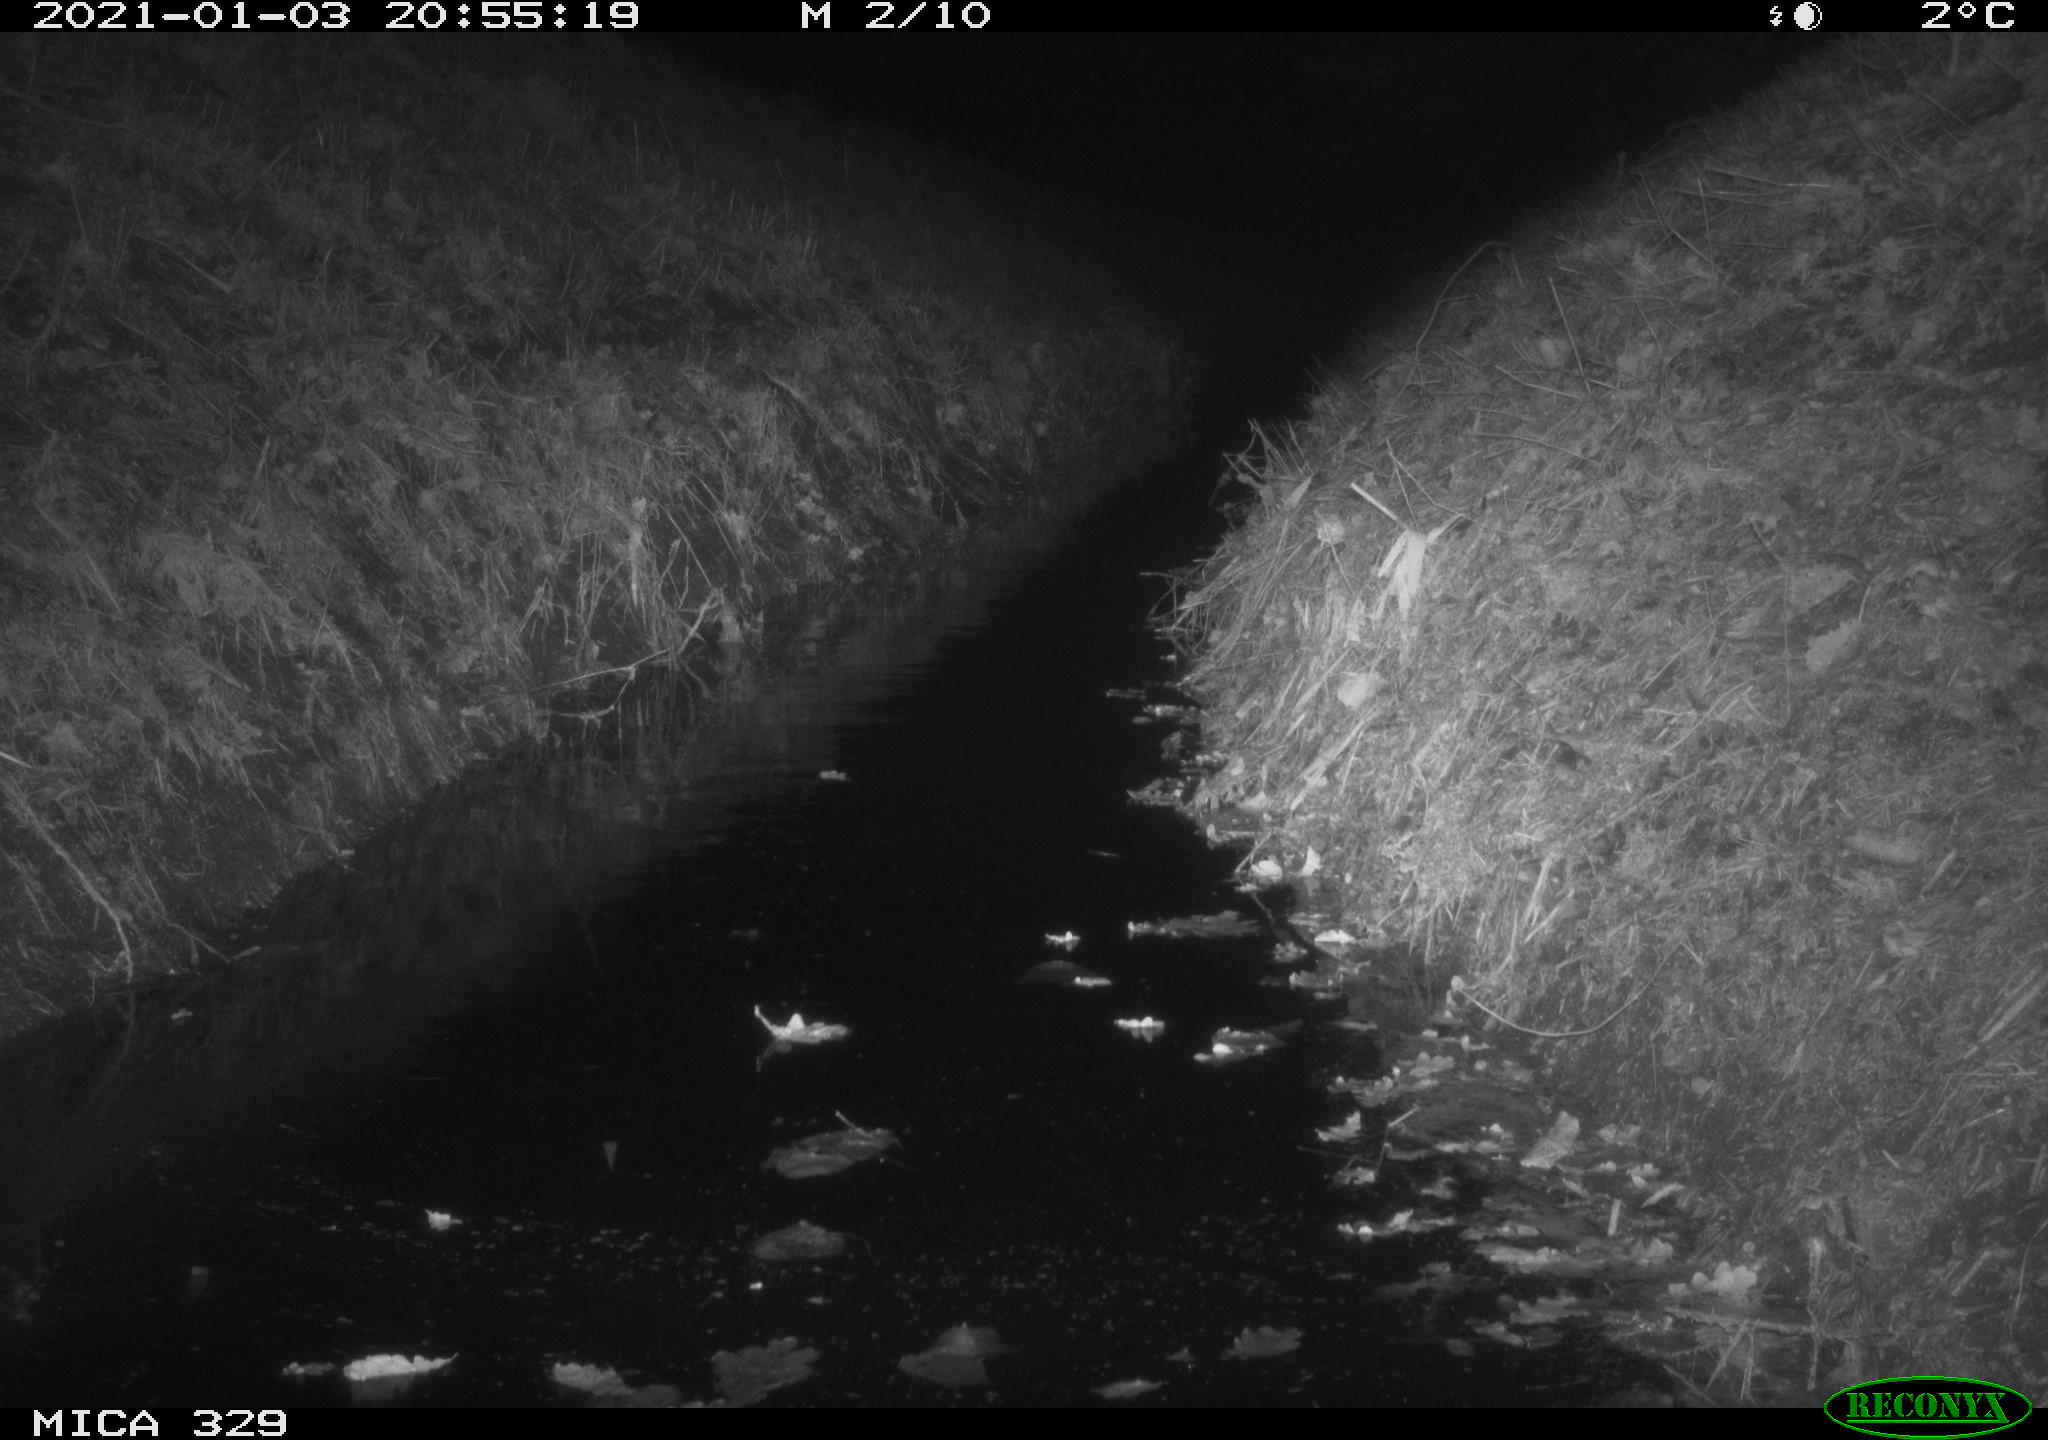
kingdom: Animalia
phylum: Chordata
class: Mammalia
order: Rodentia
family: Muridae
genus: Rattus
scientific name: Rattus norvegicus
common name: Brown rat
